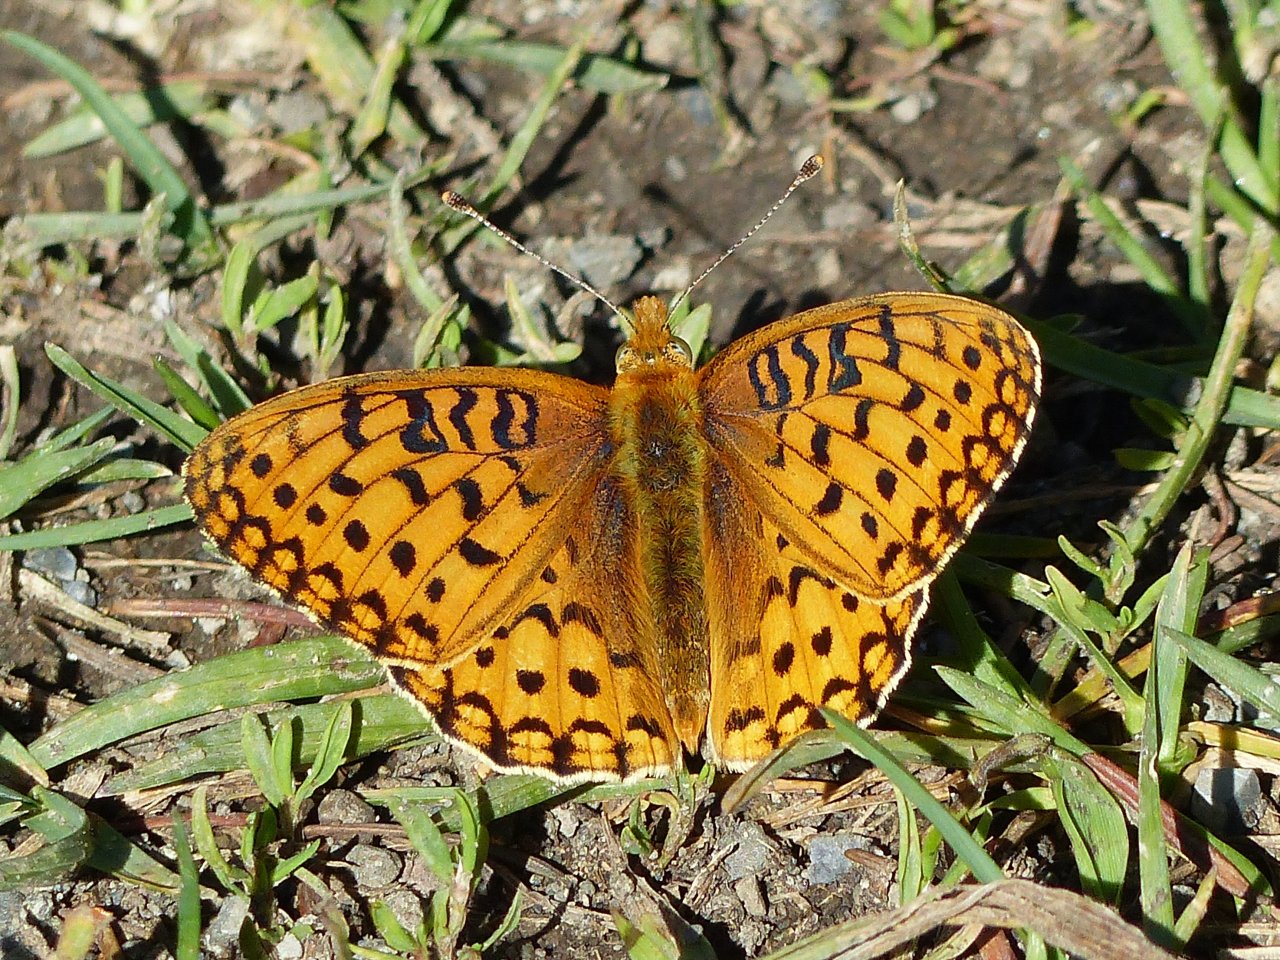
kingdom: Animalia
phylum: Arthropoda
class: Insecta
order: Lepidoptera
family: Nymphalidae
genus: Speyeria
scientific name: Speyeria mormonia
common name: Mormon Fritillary
